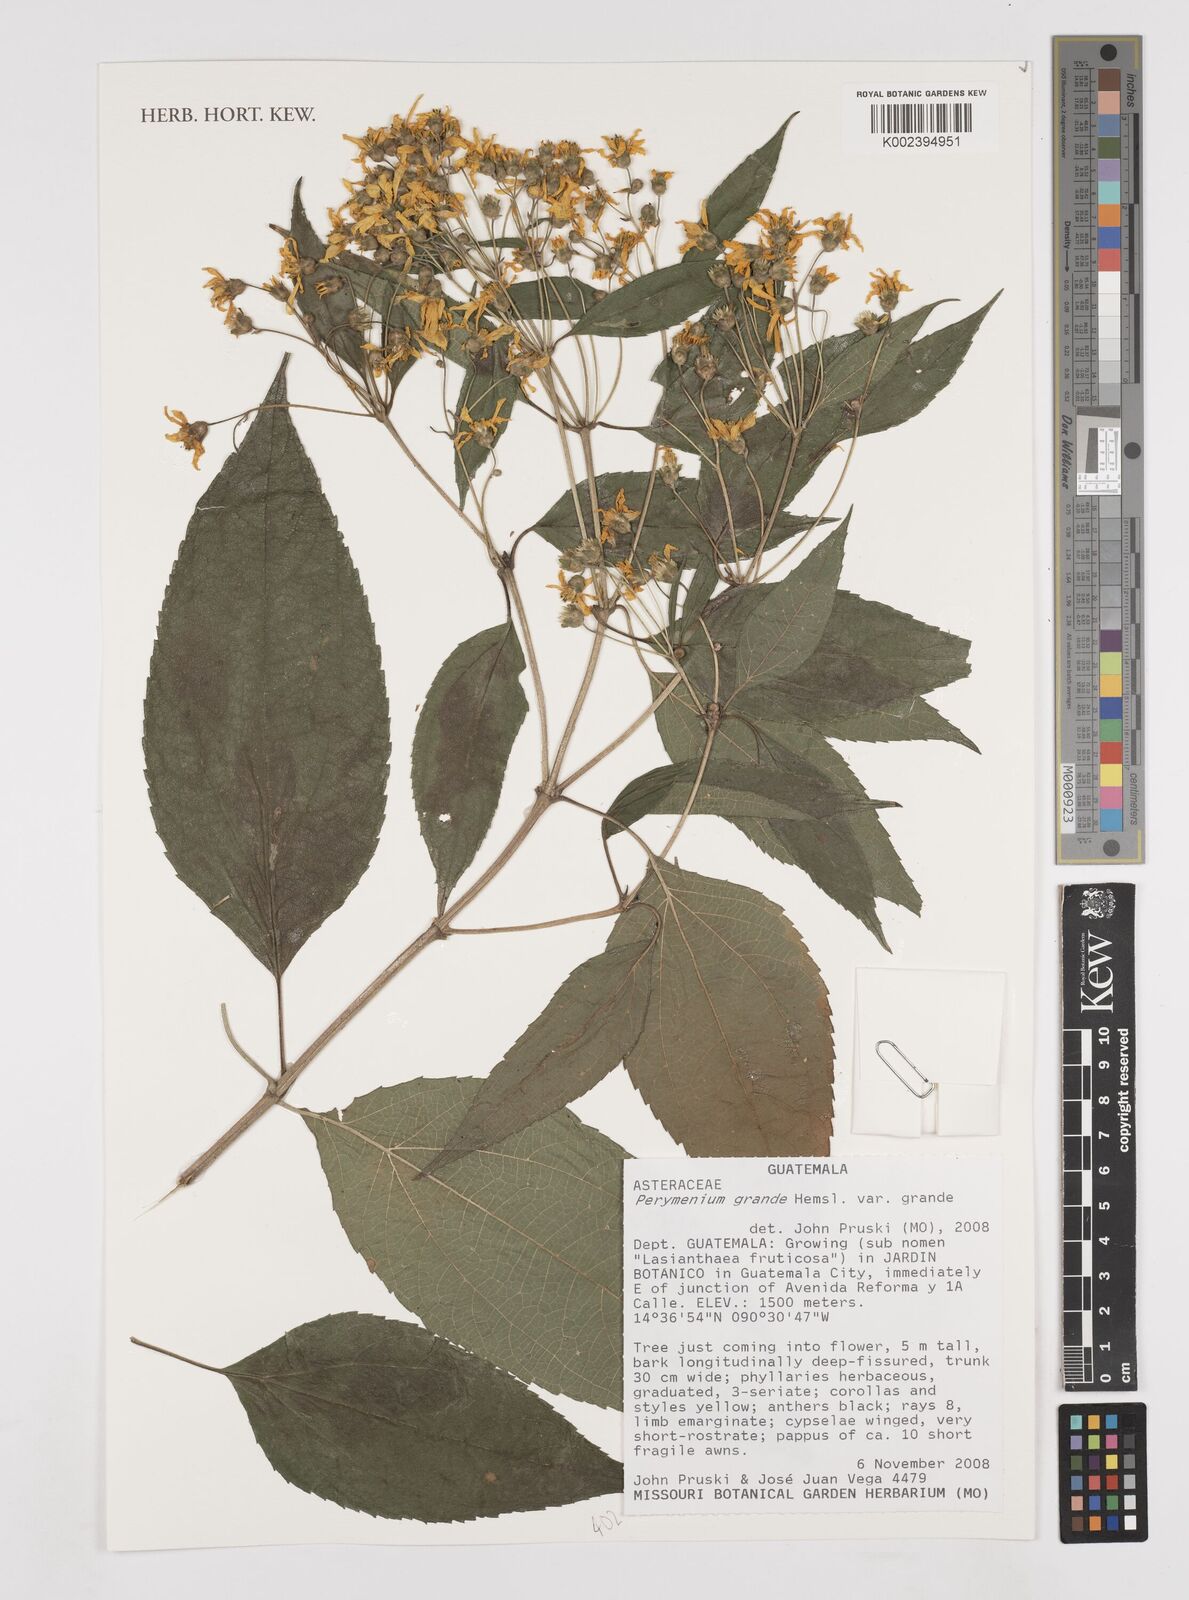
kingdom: Plantae
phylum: Tracheophyta
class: Magnoliopsida
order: Asterales
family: Asteraceae
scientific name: Asteraceae
